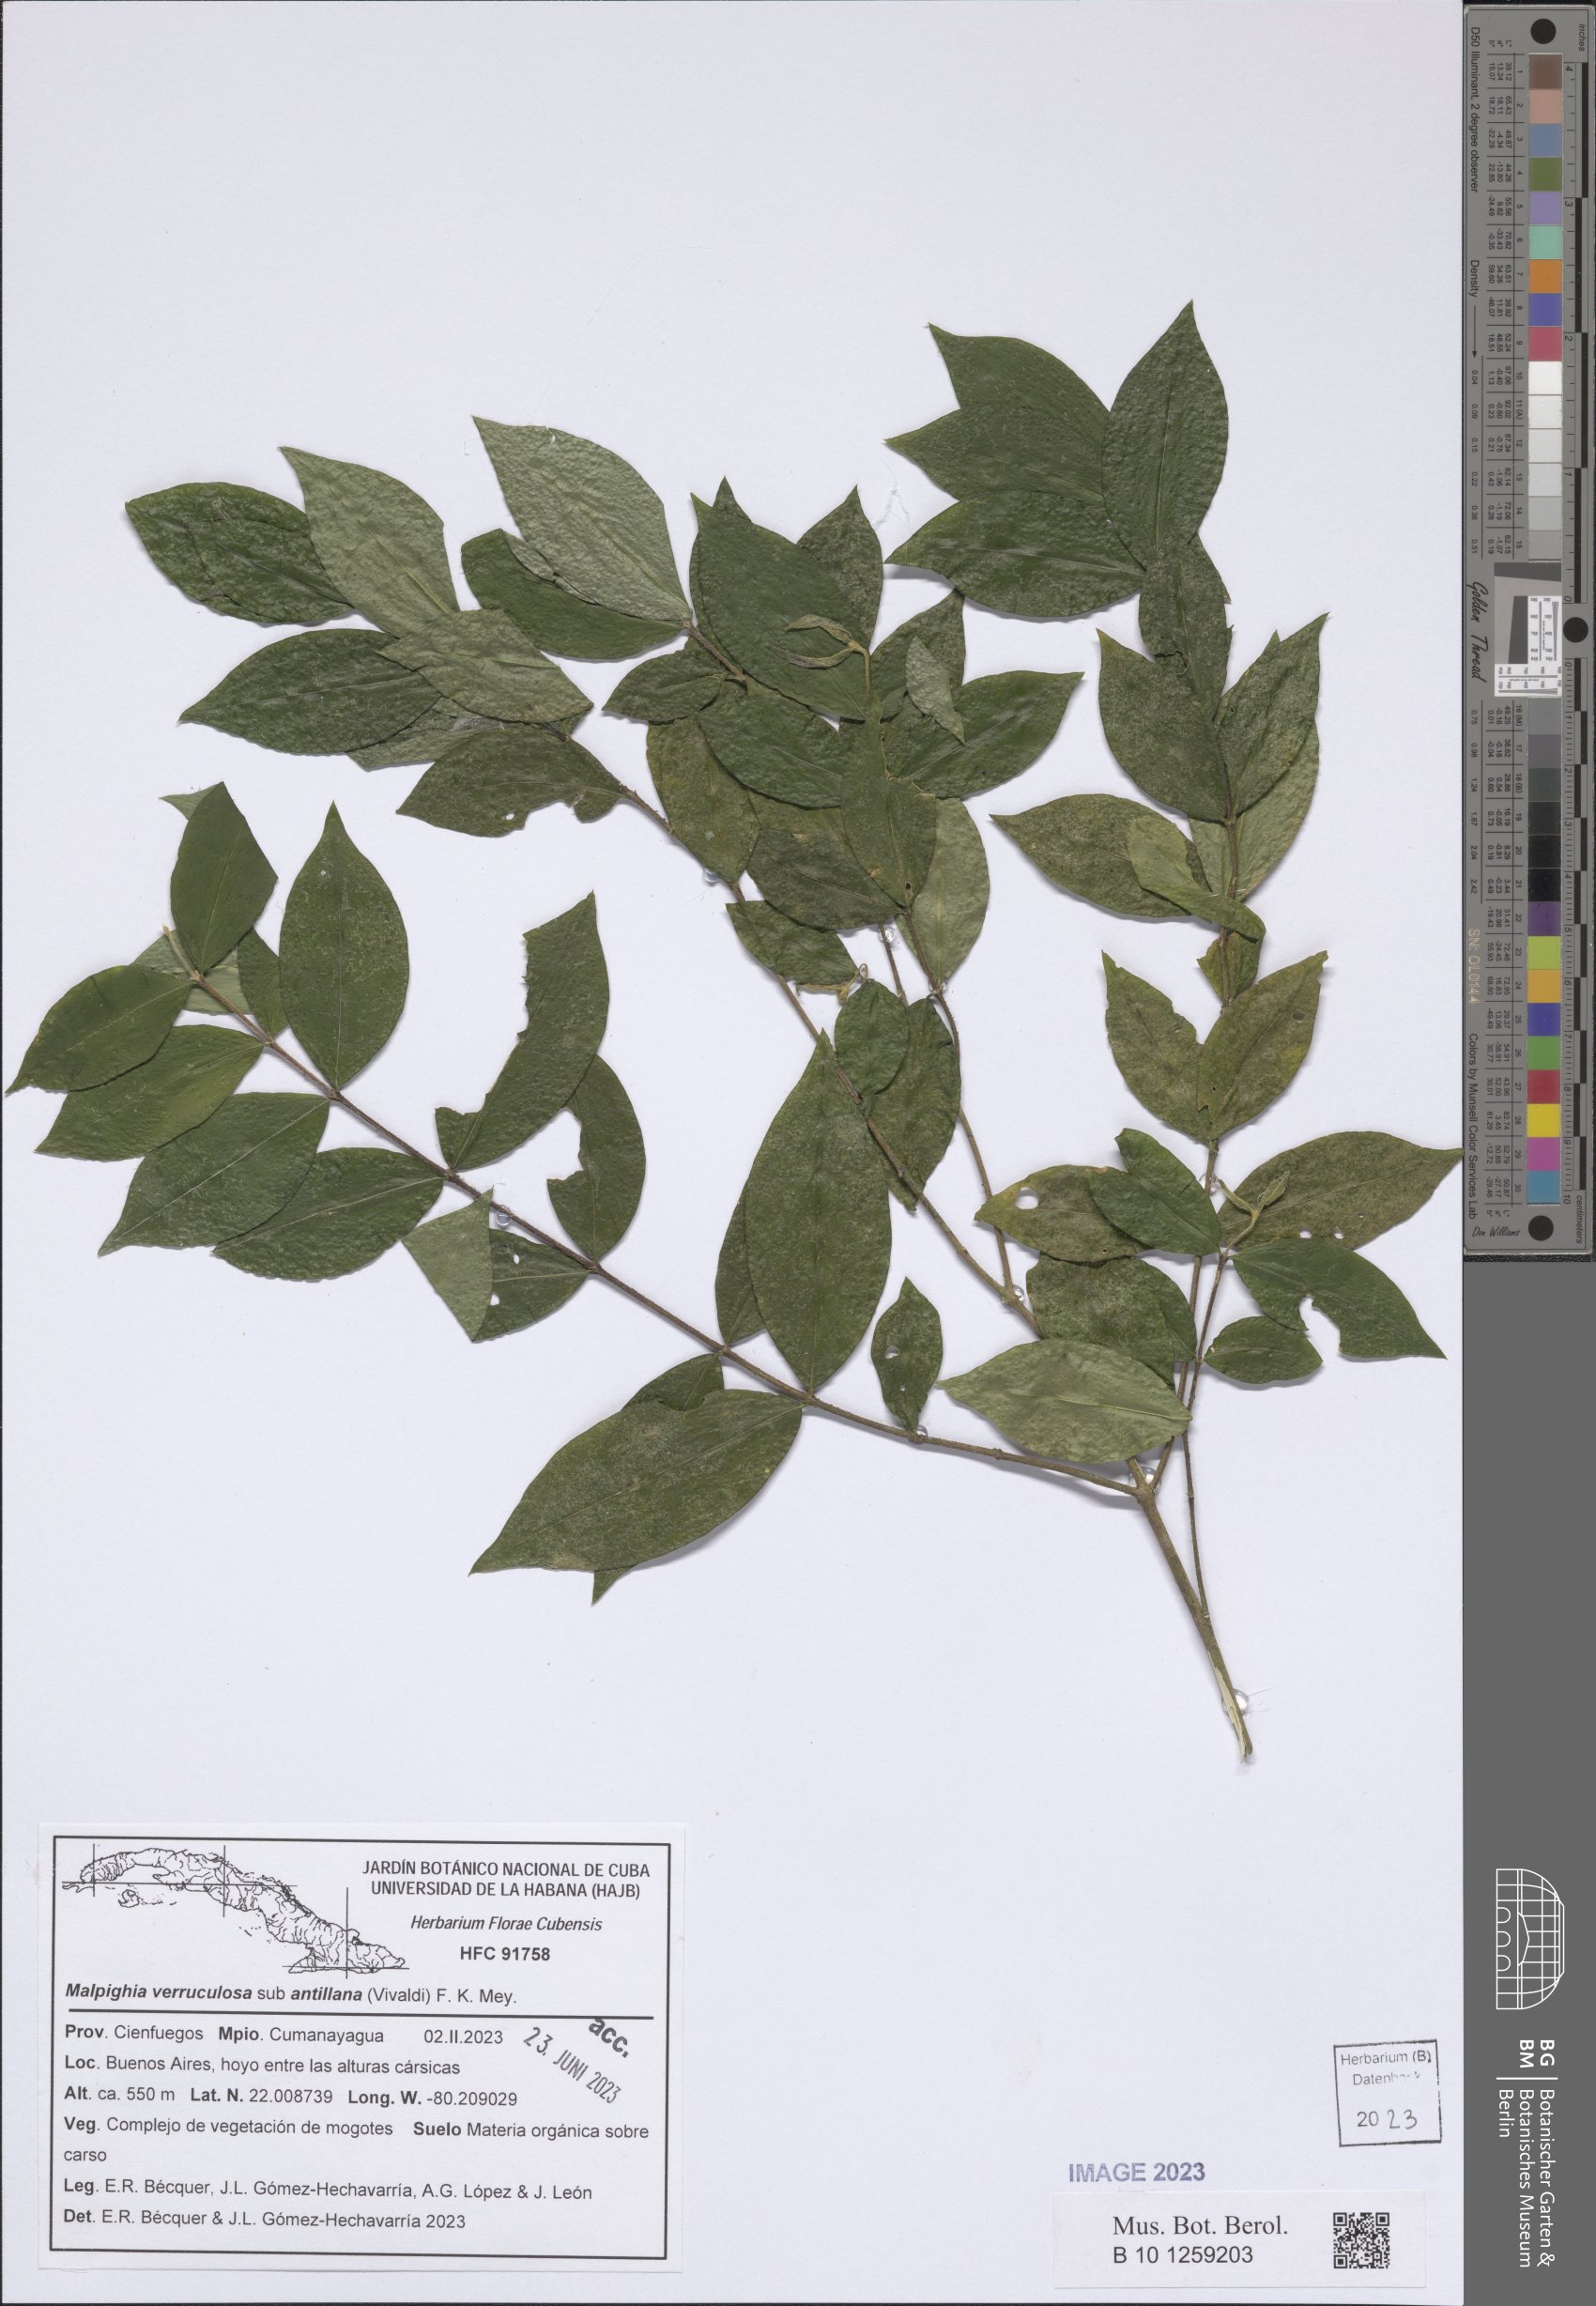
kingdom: Plantae
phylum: Tracheophyta
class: Magnoliopsida
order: Malpighiales
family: Malpighiaceae
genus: Malpighia
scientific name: Malpighia verruculosa
